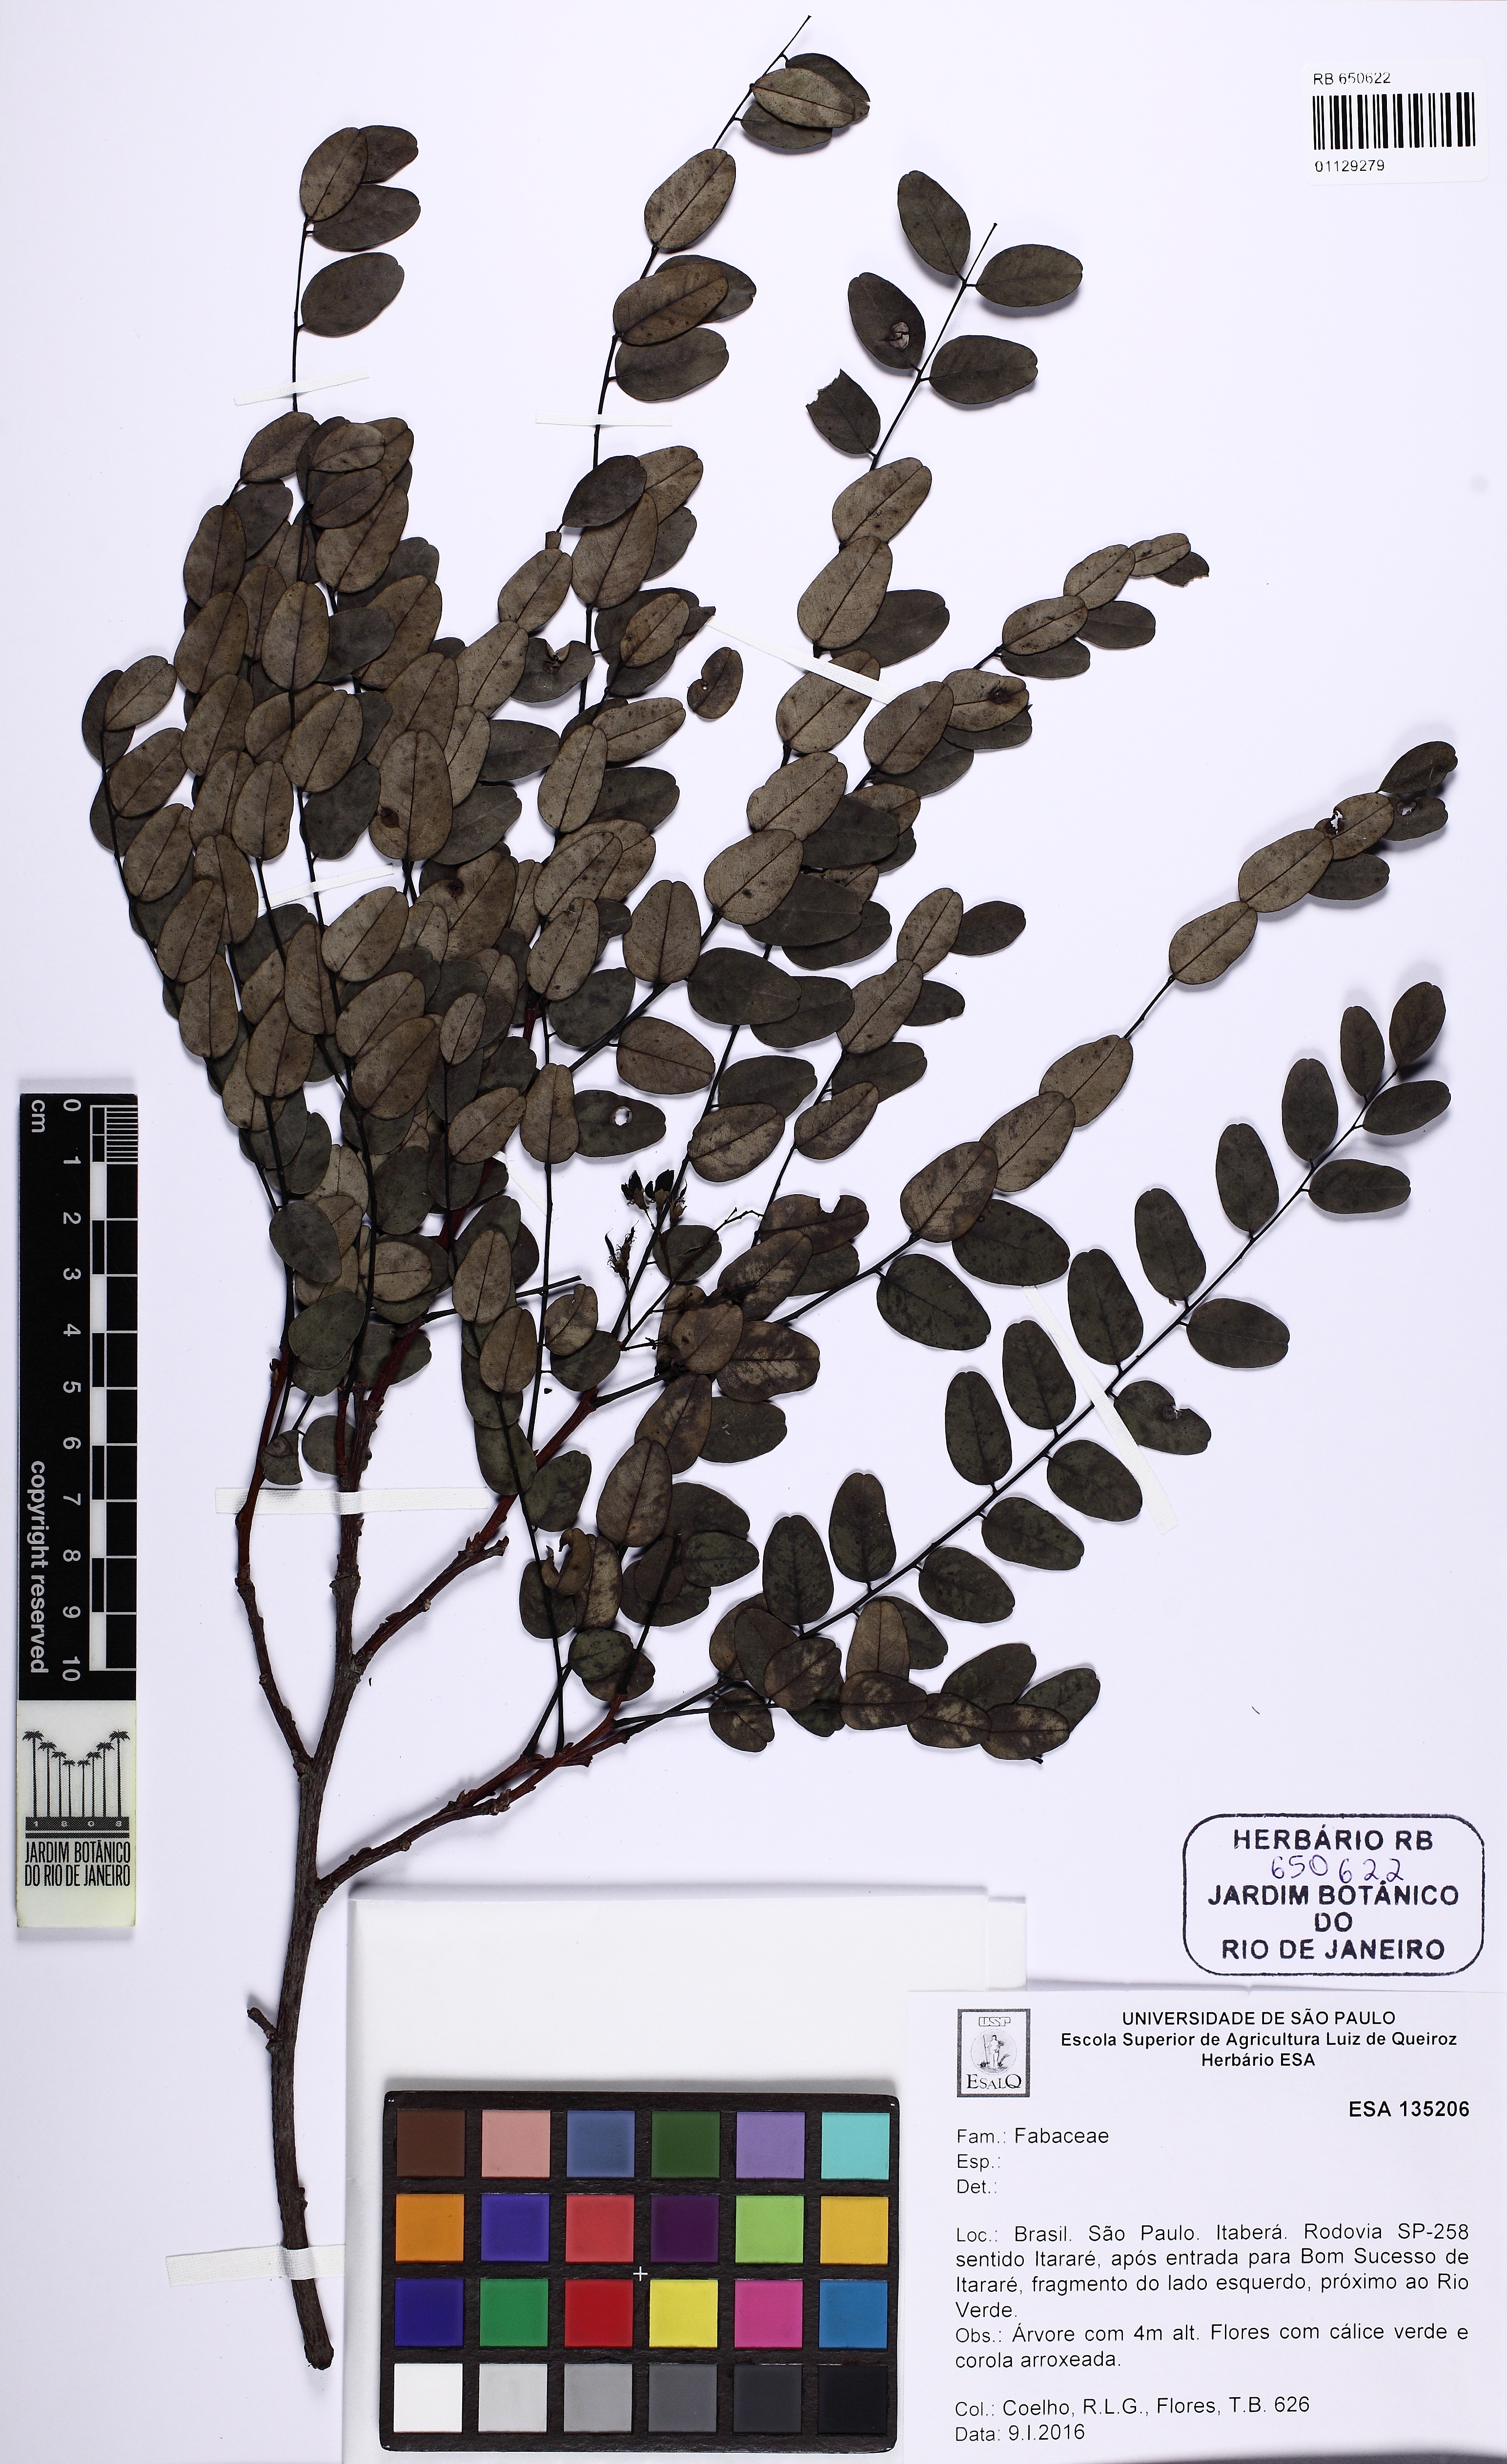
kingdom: Plantae
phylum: Tracheophyta
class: Magnoliopsida
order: Fabales
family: Fabaceae
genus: Dalbergia
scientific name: Dalbergia miscolobium
